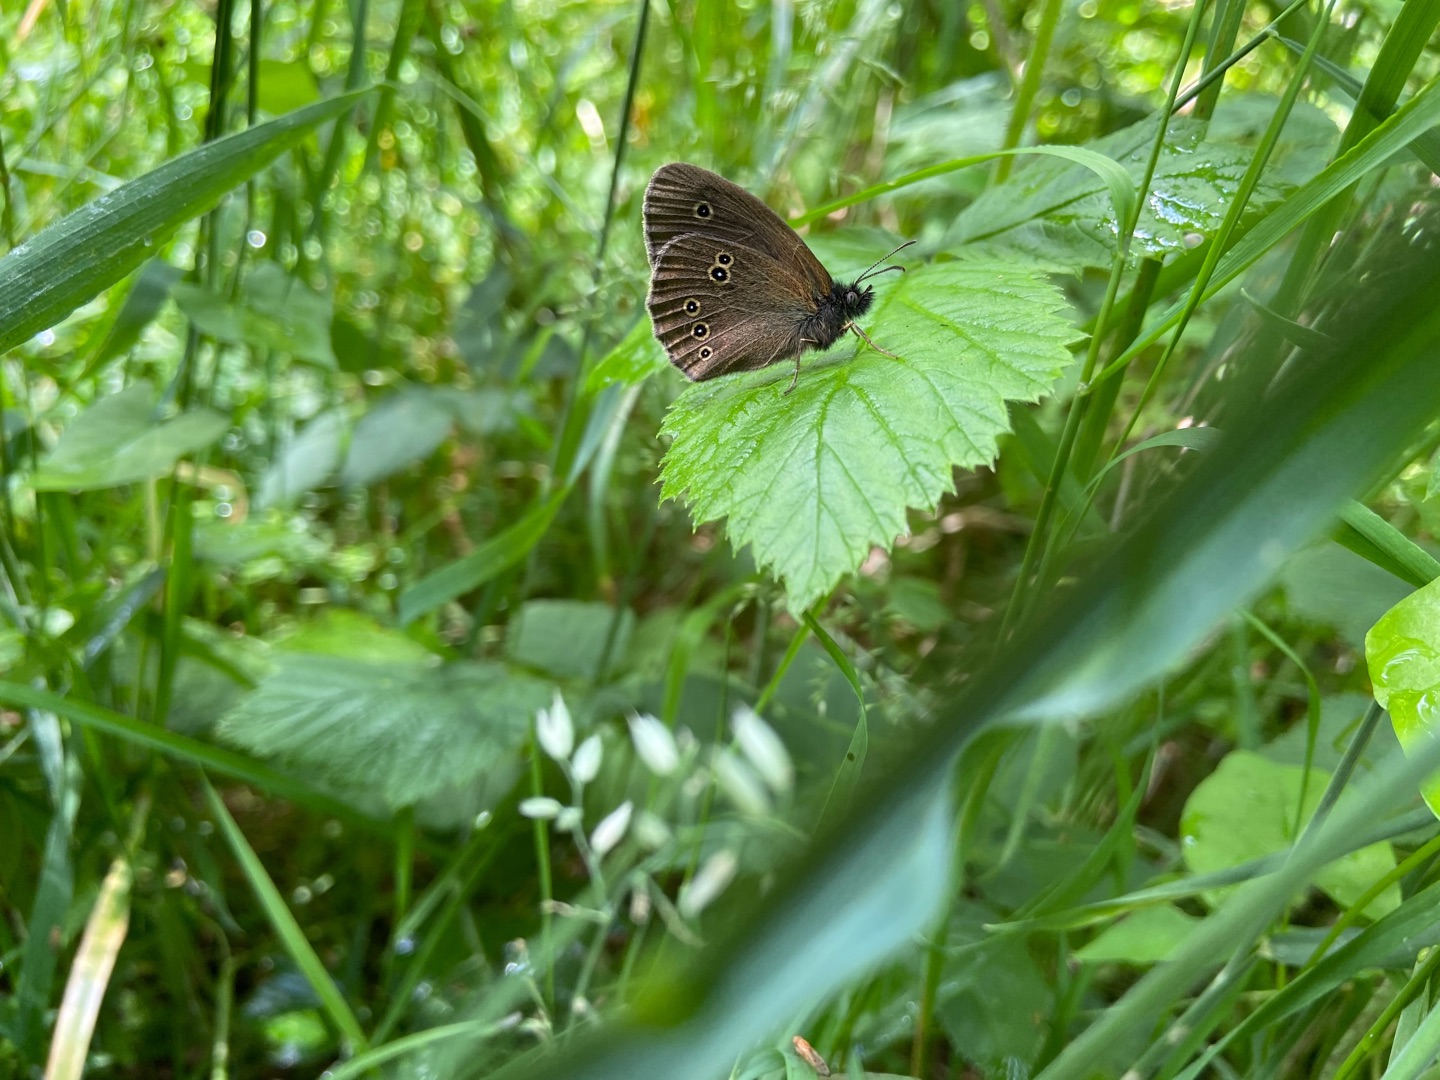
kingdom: Animalia
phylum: Arthropoda
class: Insecta
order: Lepidoptera
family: Nymphalidae
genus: Aphantopus
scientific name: Aphantopus hyperantus
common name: Engrandøje
